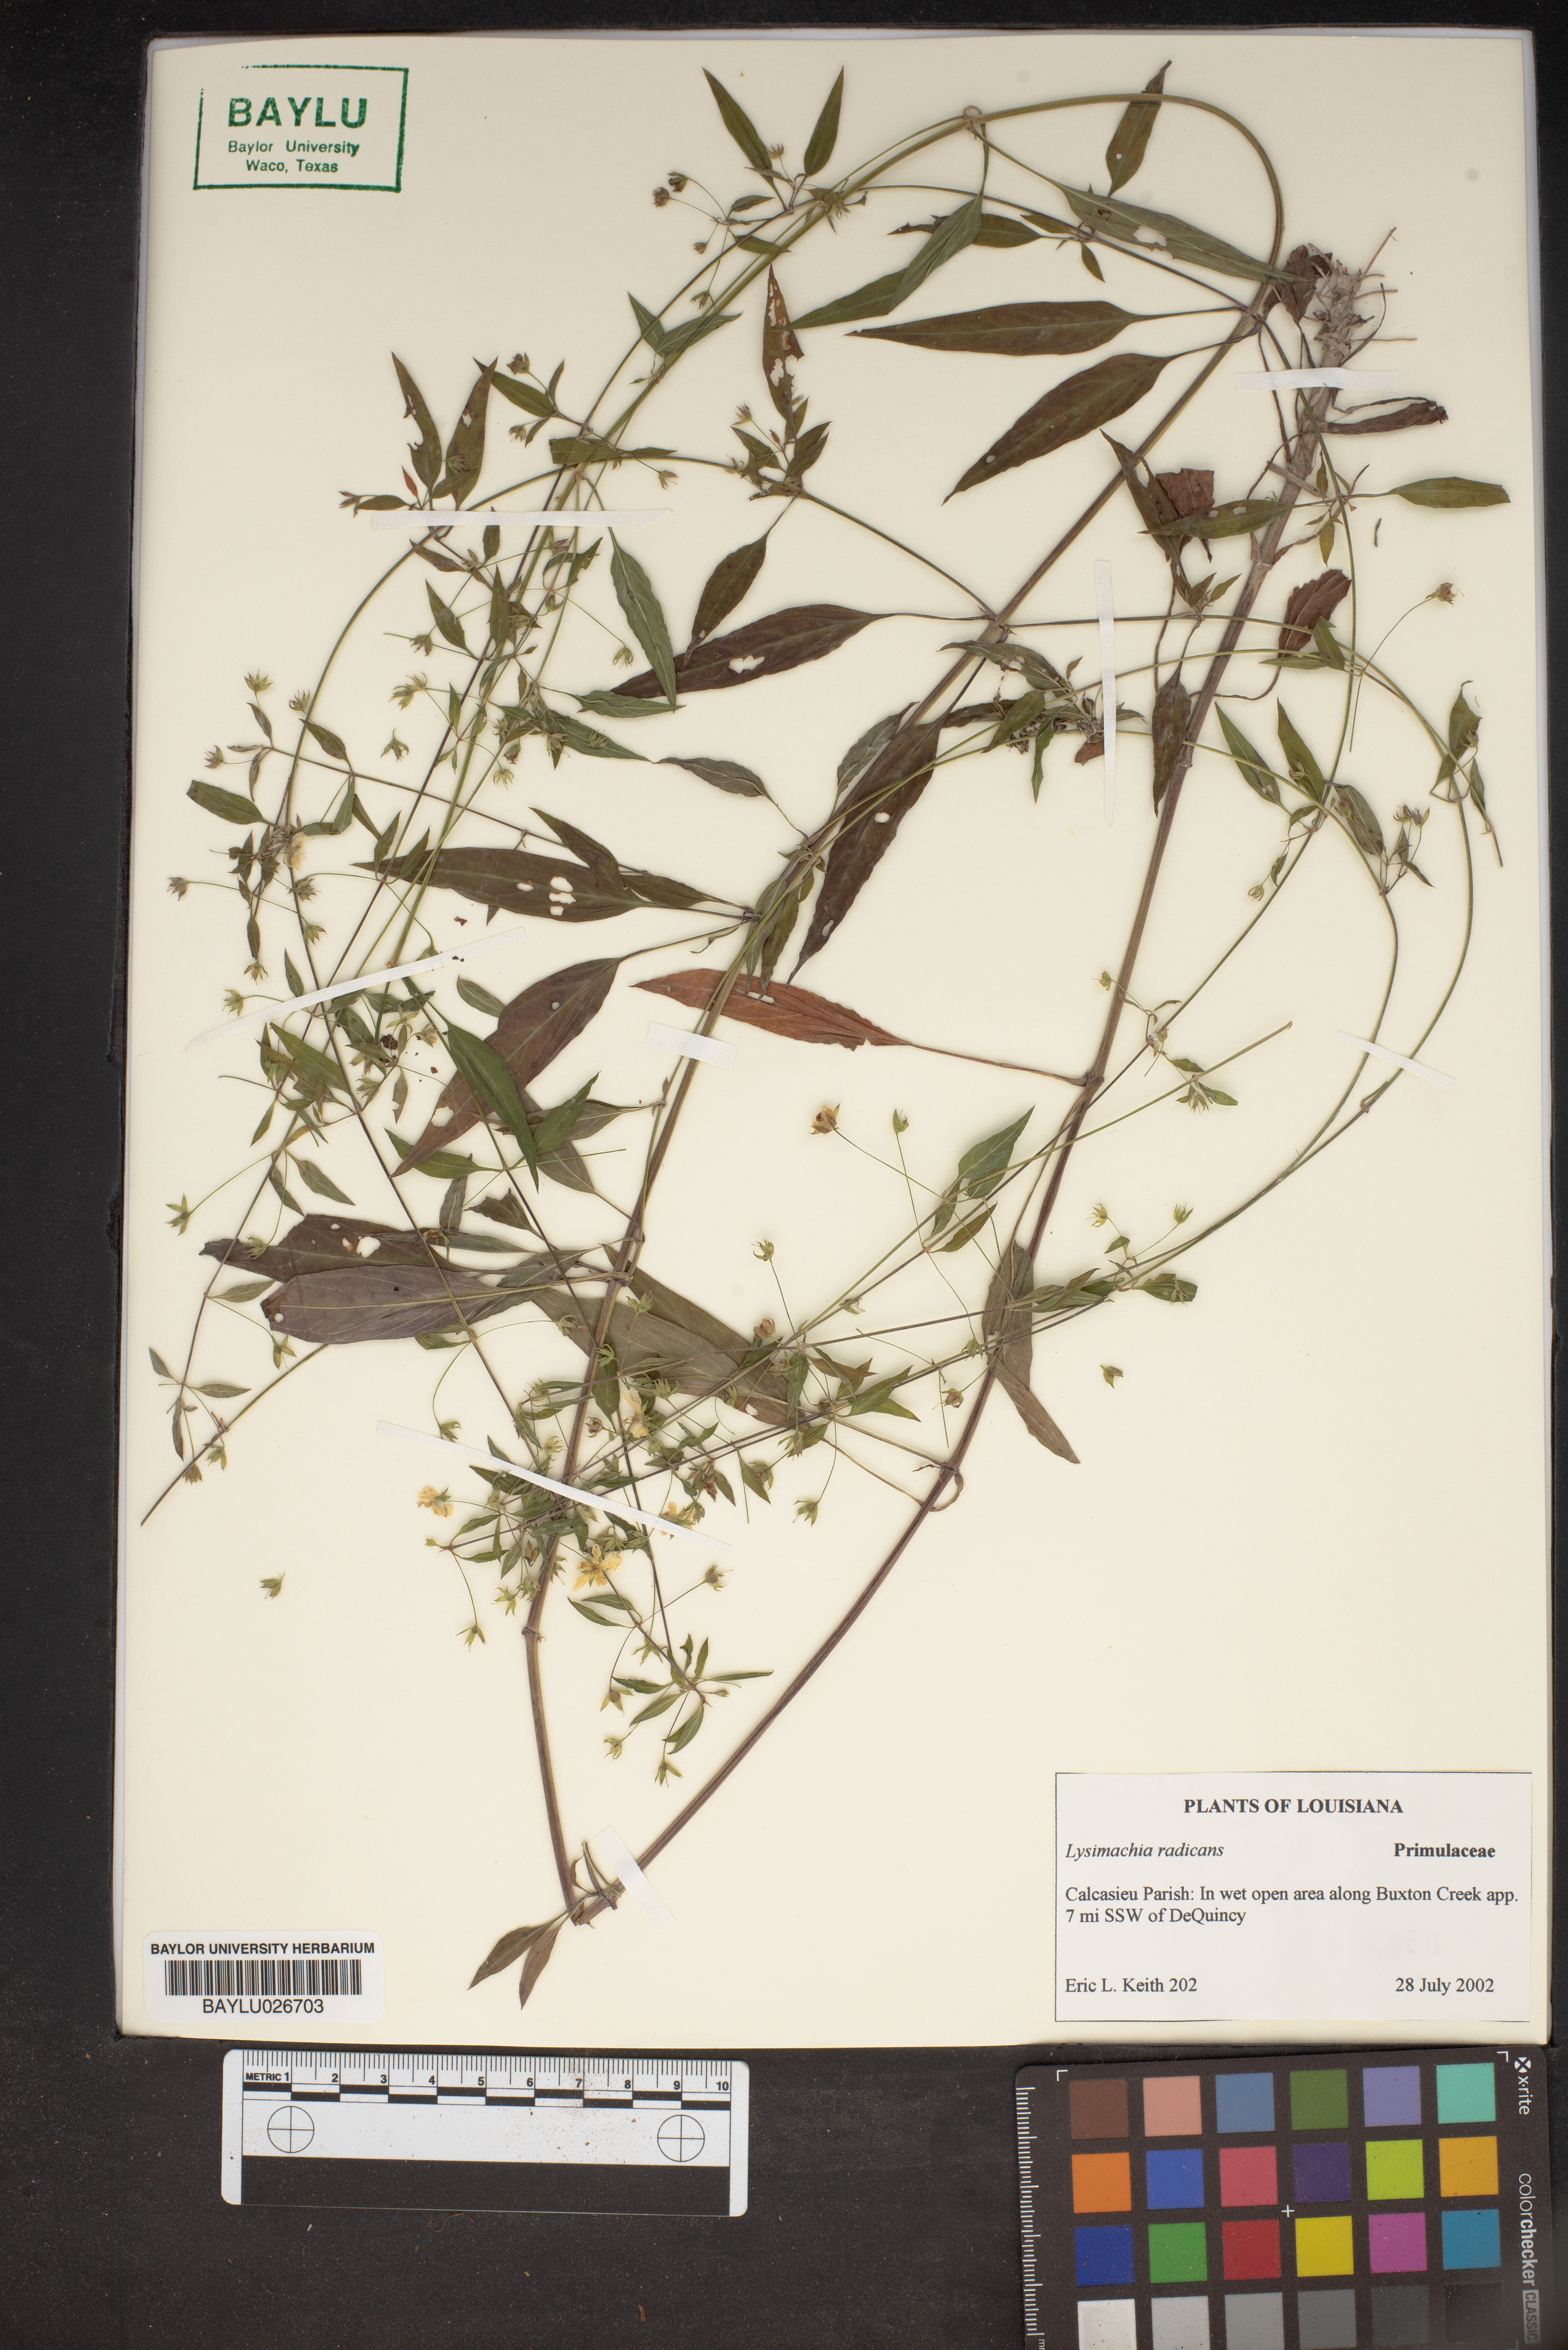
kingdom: Plantae
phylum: Tracheophyta
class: Magnoliopsida
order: Ericales
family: Primulaceae
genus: Lysimachia
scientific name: Lysimachia radicans
